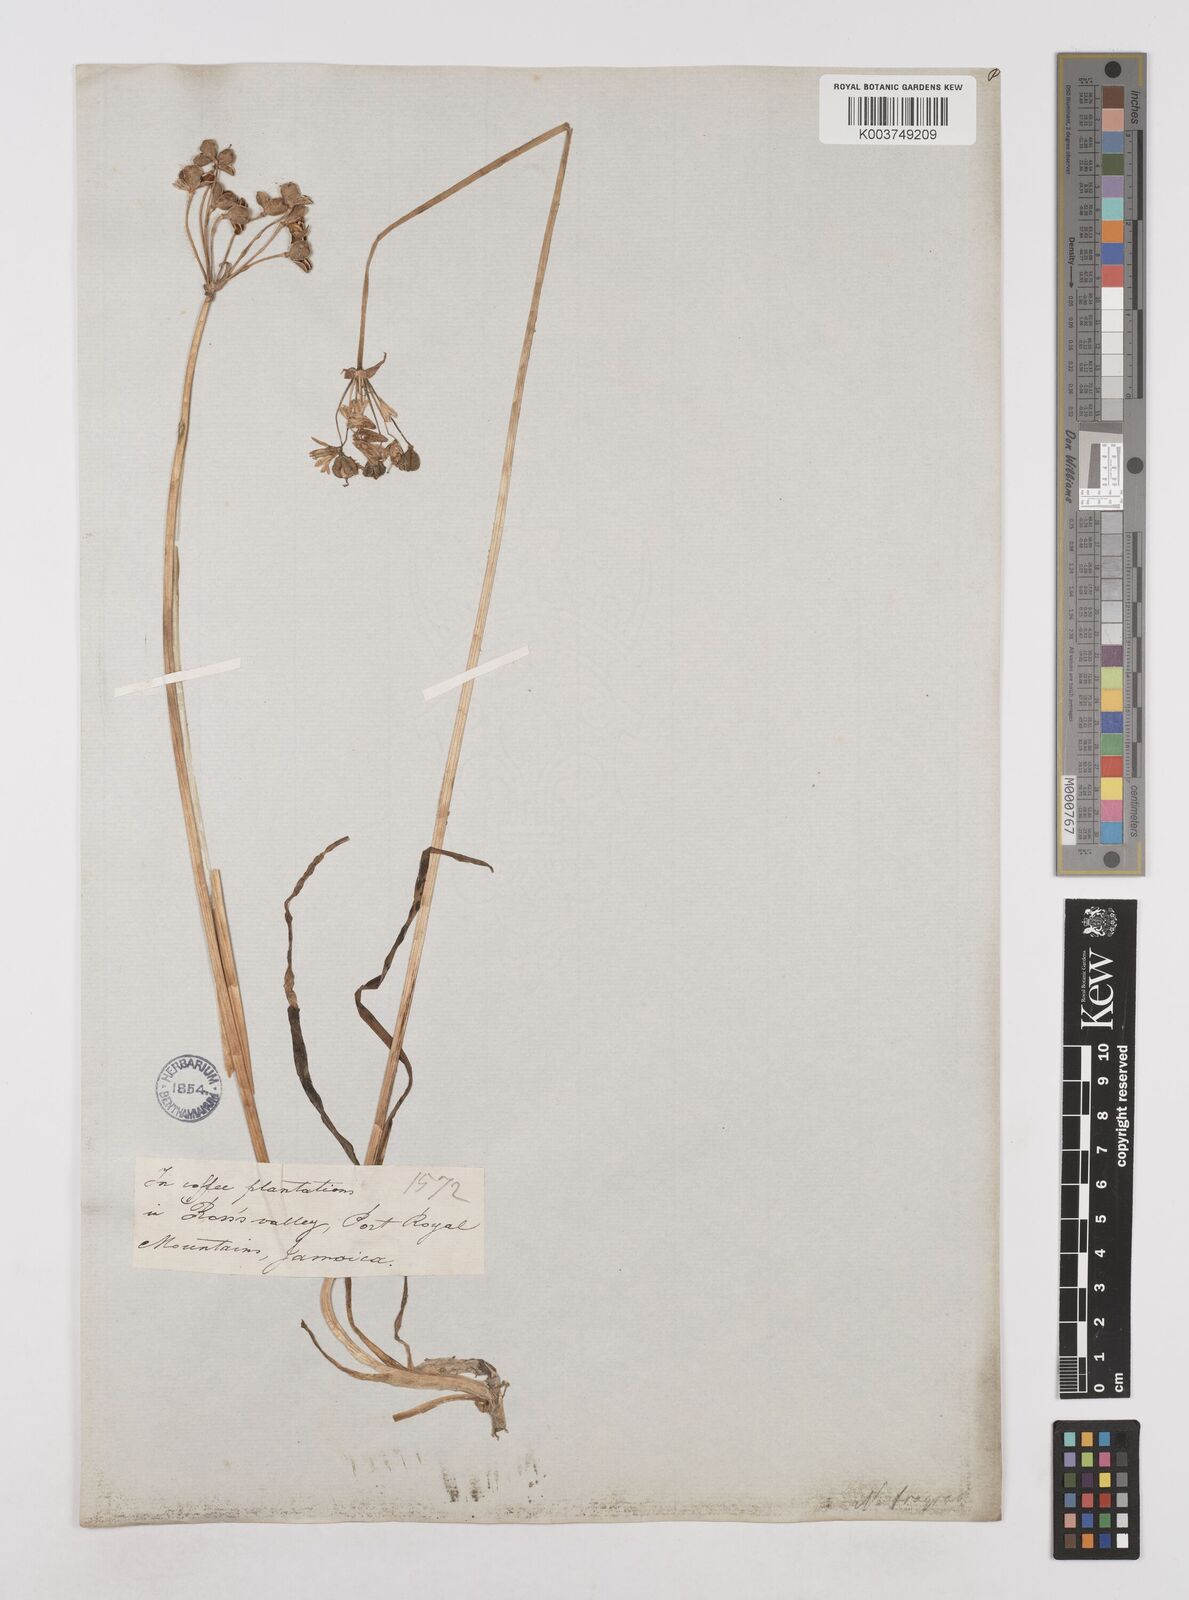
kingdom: Plantae
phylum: Tracheophyta
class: Liliopsida
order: Asparagales
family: Amaryllidaceae
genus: Allium
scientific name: Allium neapolitanum
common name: Neapolitan garlic
